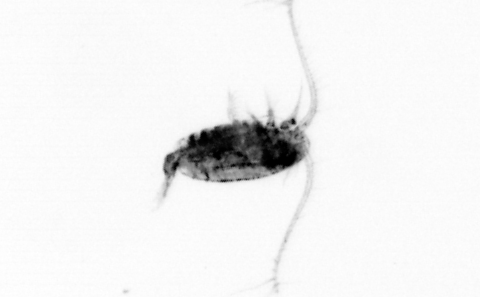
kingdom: Animalia
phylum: Arthropoda
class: Copepoda
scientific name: Copepoda
